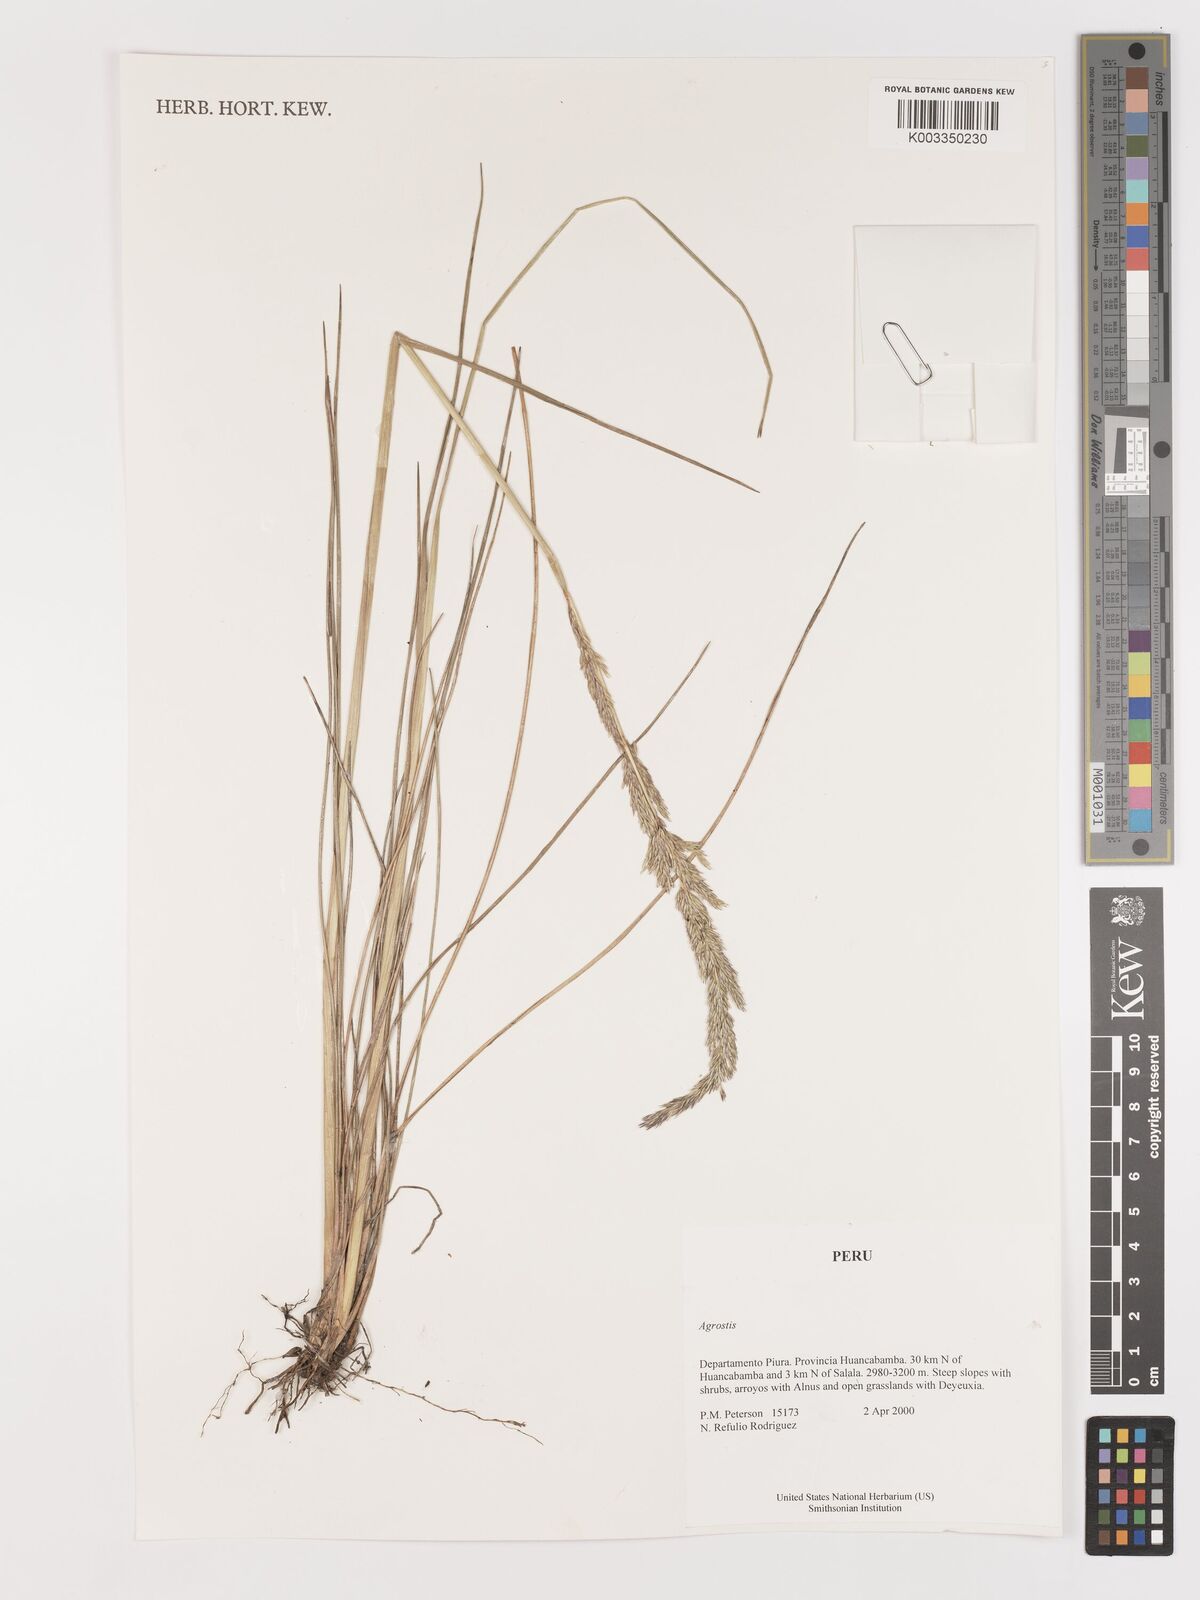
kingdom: Plantae
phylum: Tracheophyta
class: Liliopsida
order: Poales
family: Poaceae
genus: Agrostis
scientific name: Agrostis
